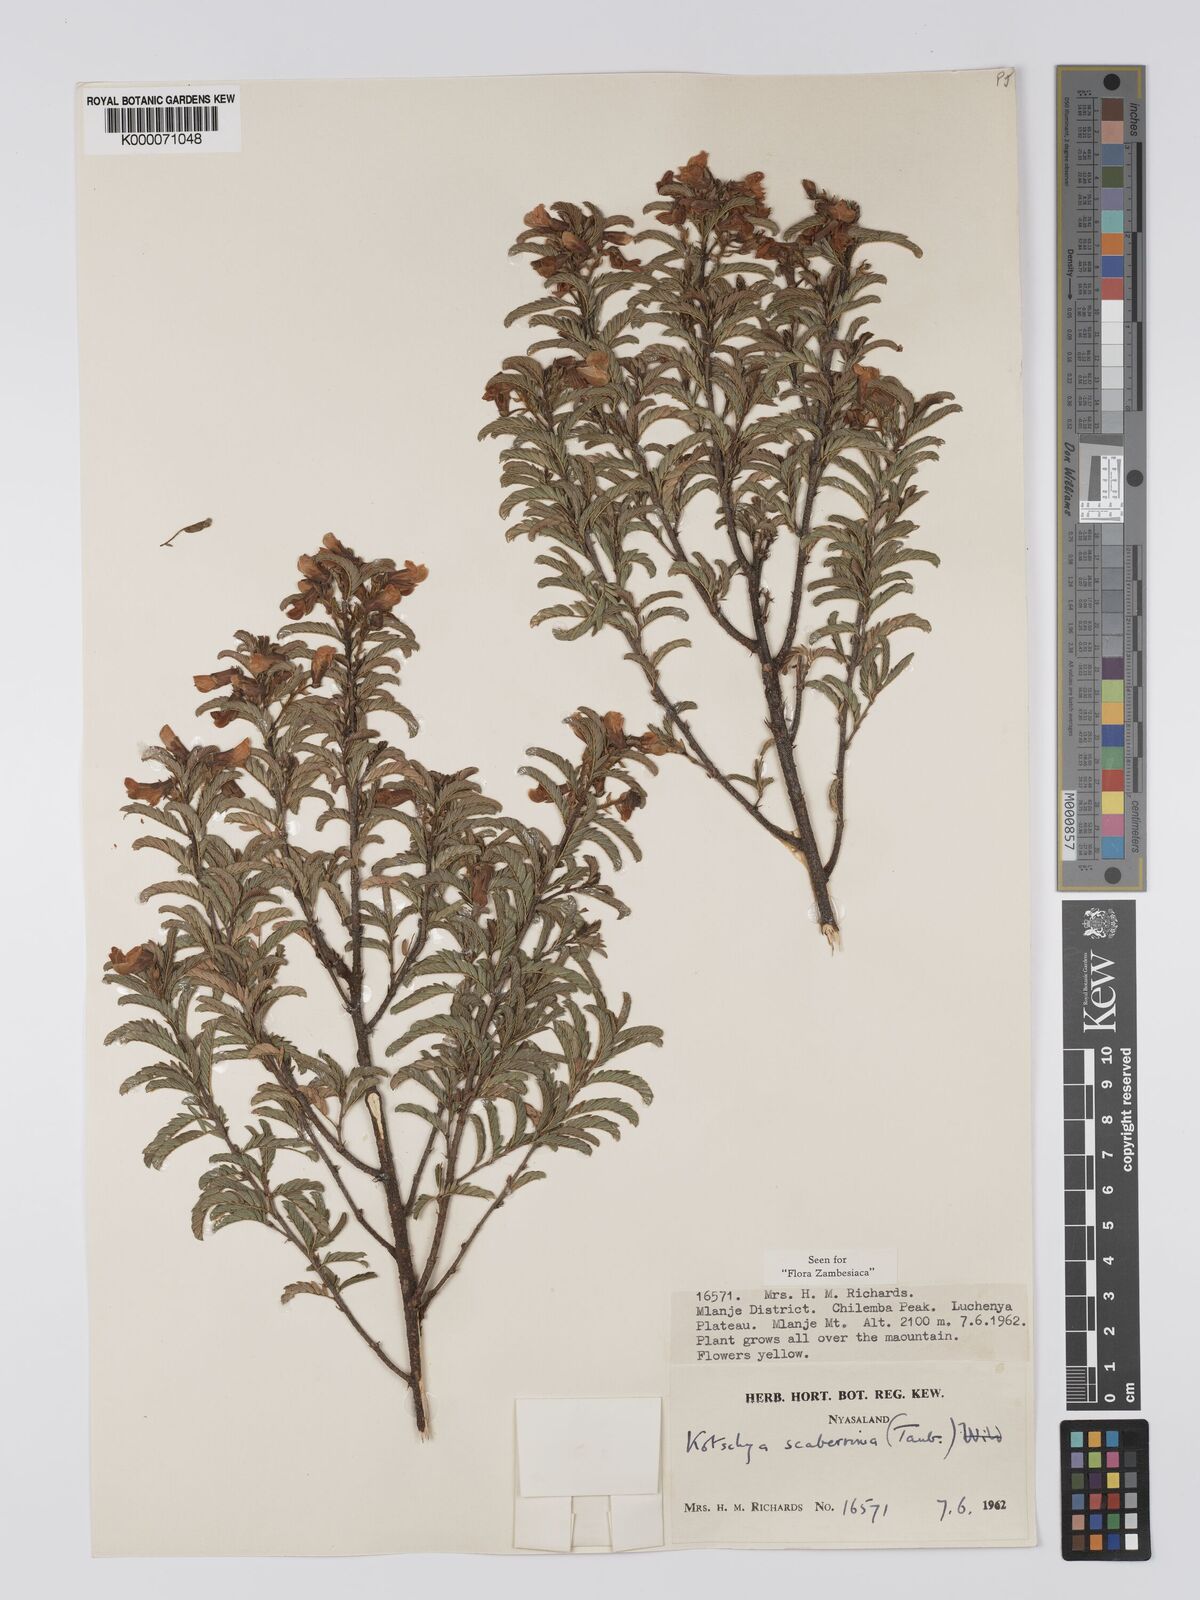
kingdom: Plantae
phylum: Tracheophyta
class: Magnoliopsida
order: Fabales
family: Fabaceae
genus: Kotschya
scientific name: Kotschya scaberrima
